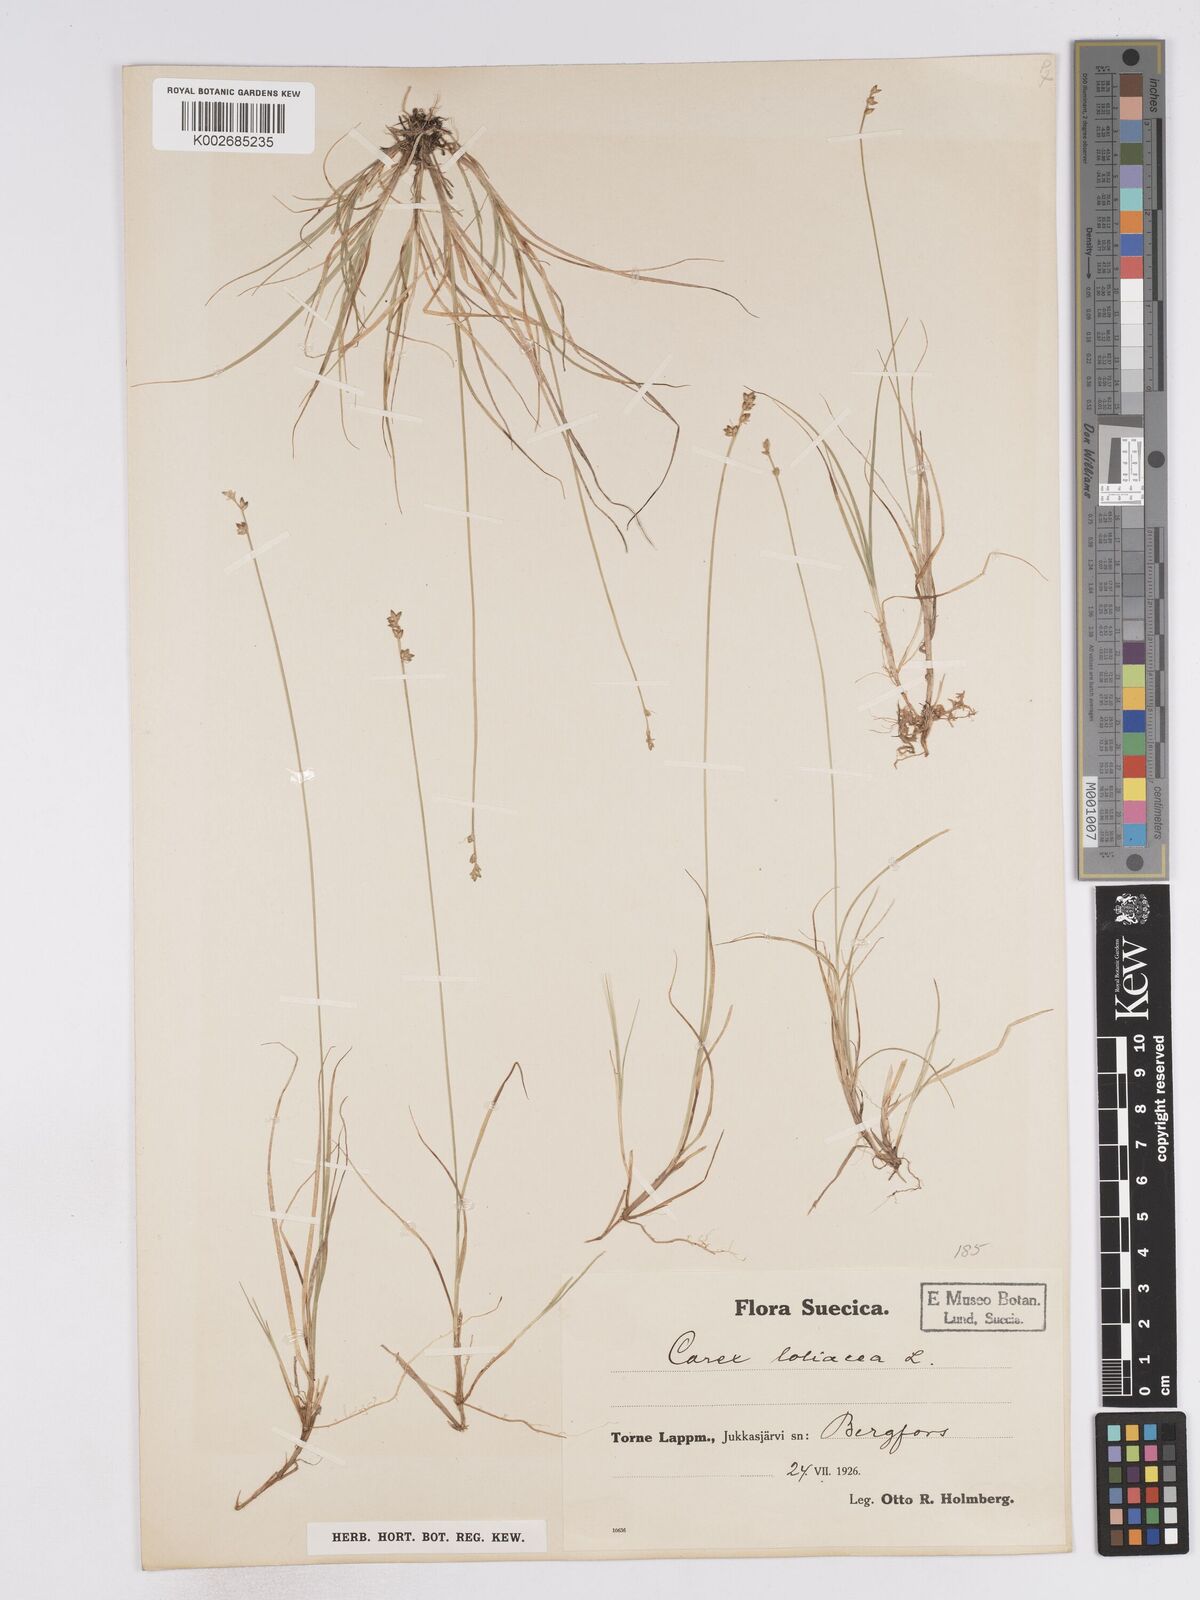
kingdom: Plantae
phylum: Tracheophyta
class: Liliopsida
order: Poales
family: Cyperaceae
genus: Carex
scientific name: Carex loliacea
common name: Ryegrass sedge
